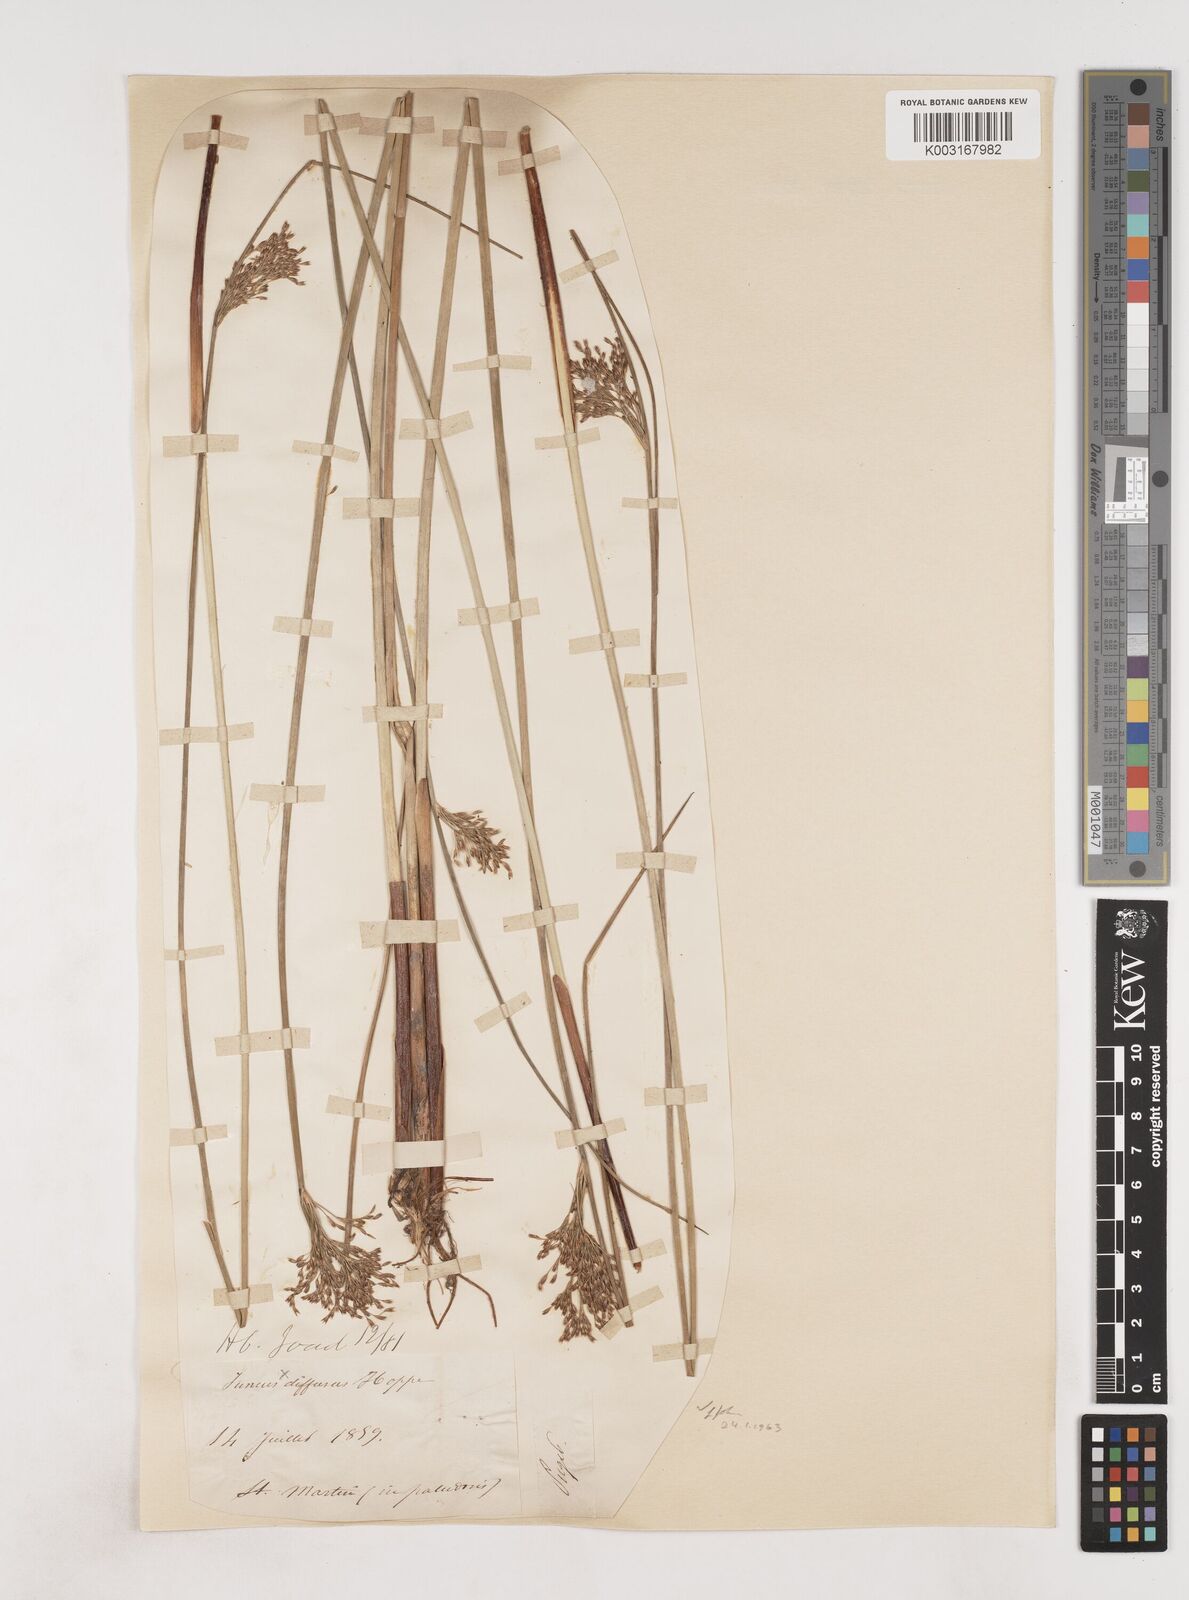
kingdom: Plantae
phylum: Tracheophyta
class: Liliopsida
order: Poales
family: Juncaceae
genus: Juncus
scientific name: Juncus effusus
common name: Soft rush
